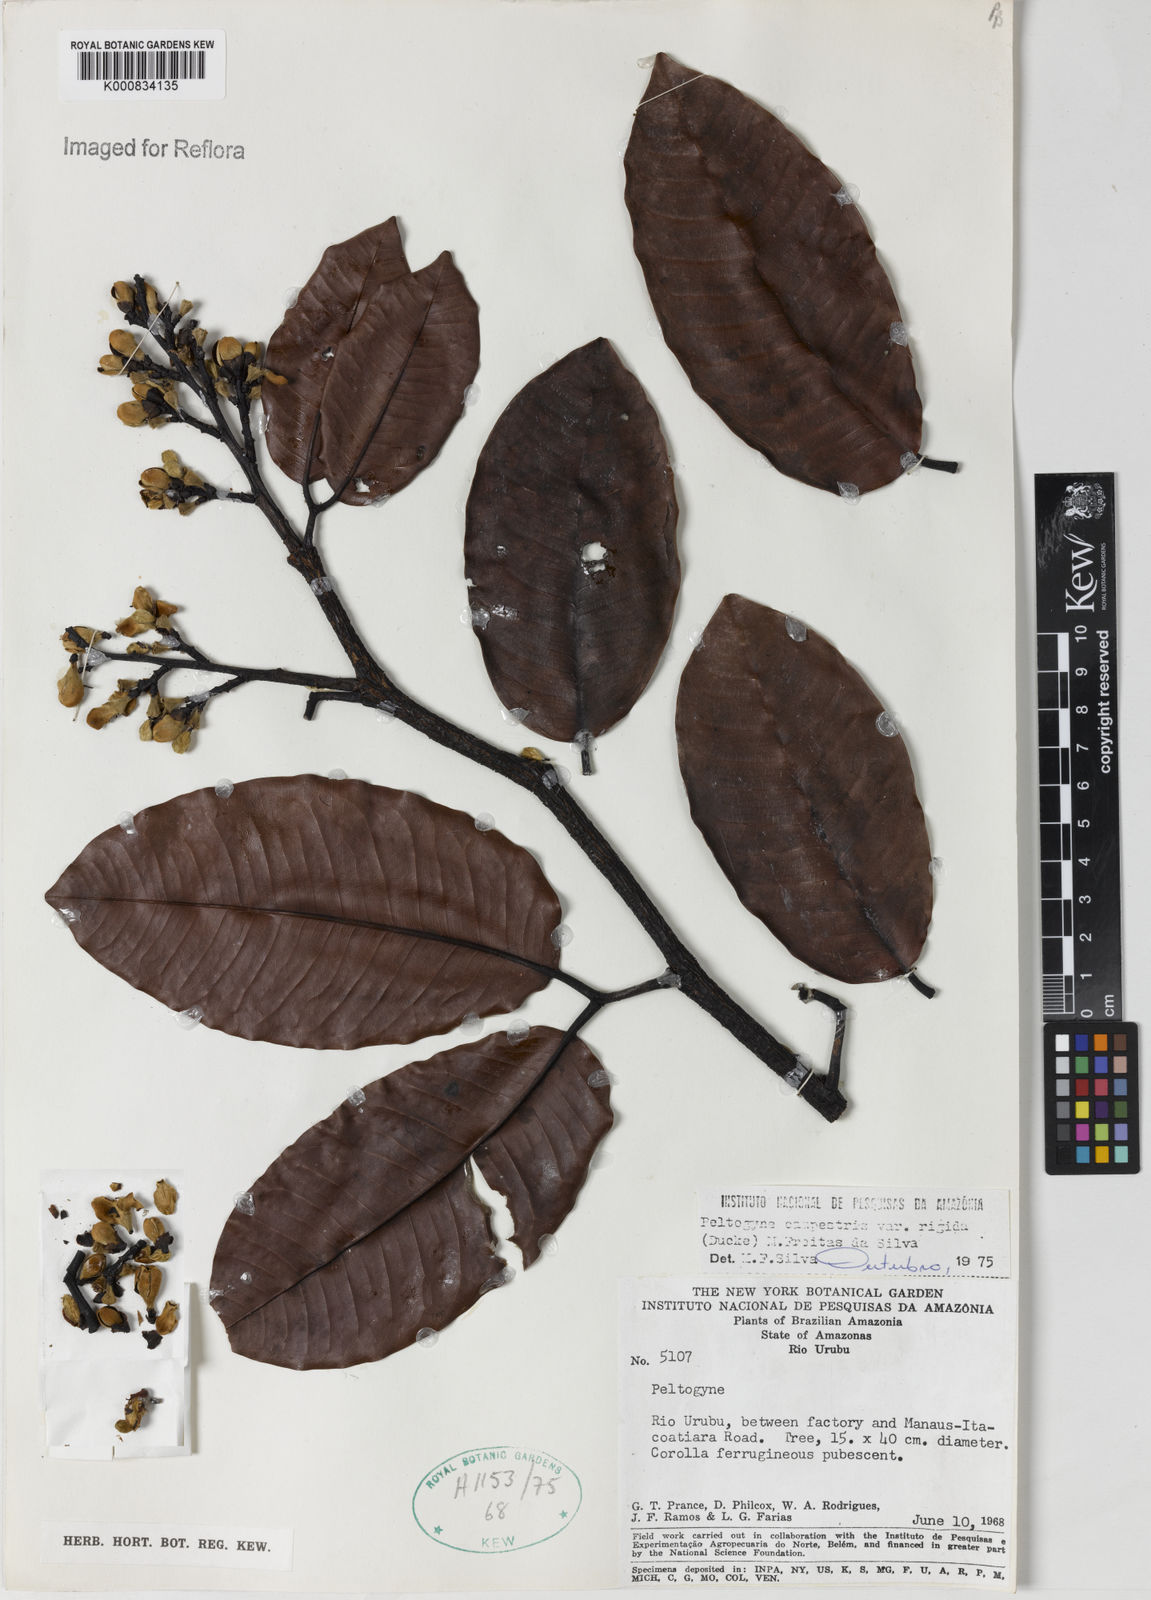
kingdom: Plantae
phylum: Tracheophyta
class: Magnoliopsida
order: Fabales
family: Fabaceae
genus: Peltogyne
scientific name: Peltogyne campestris
